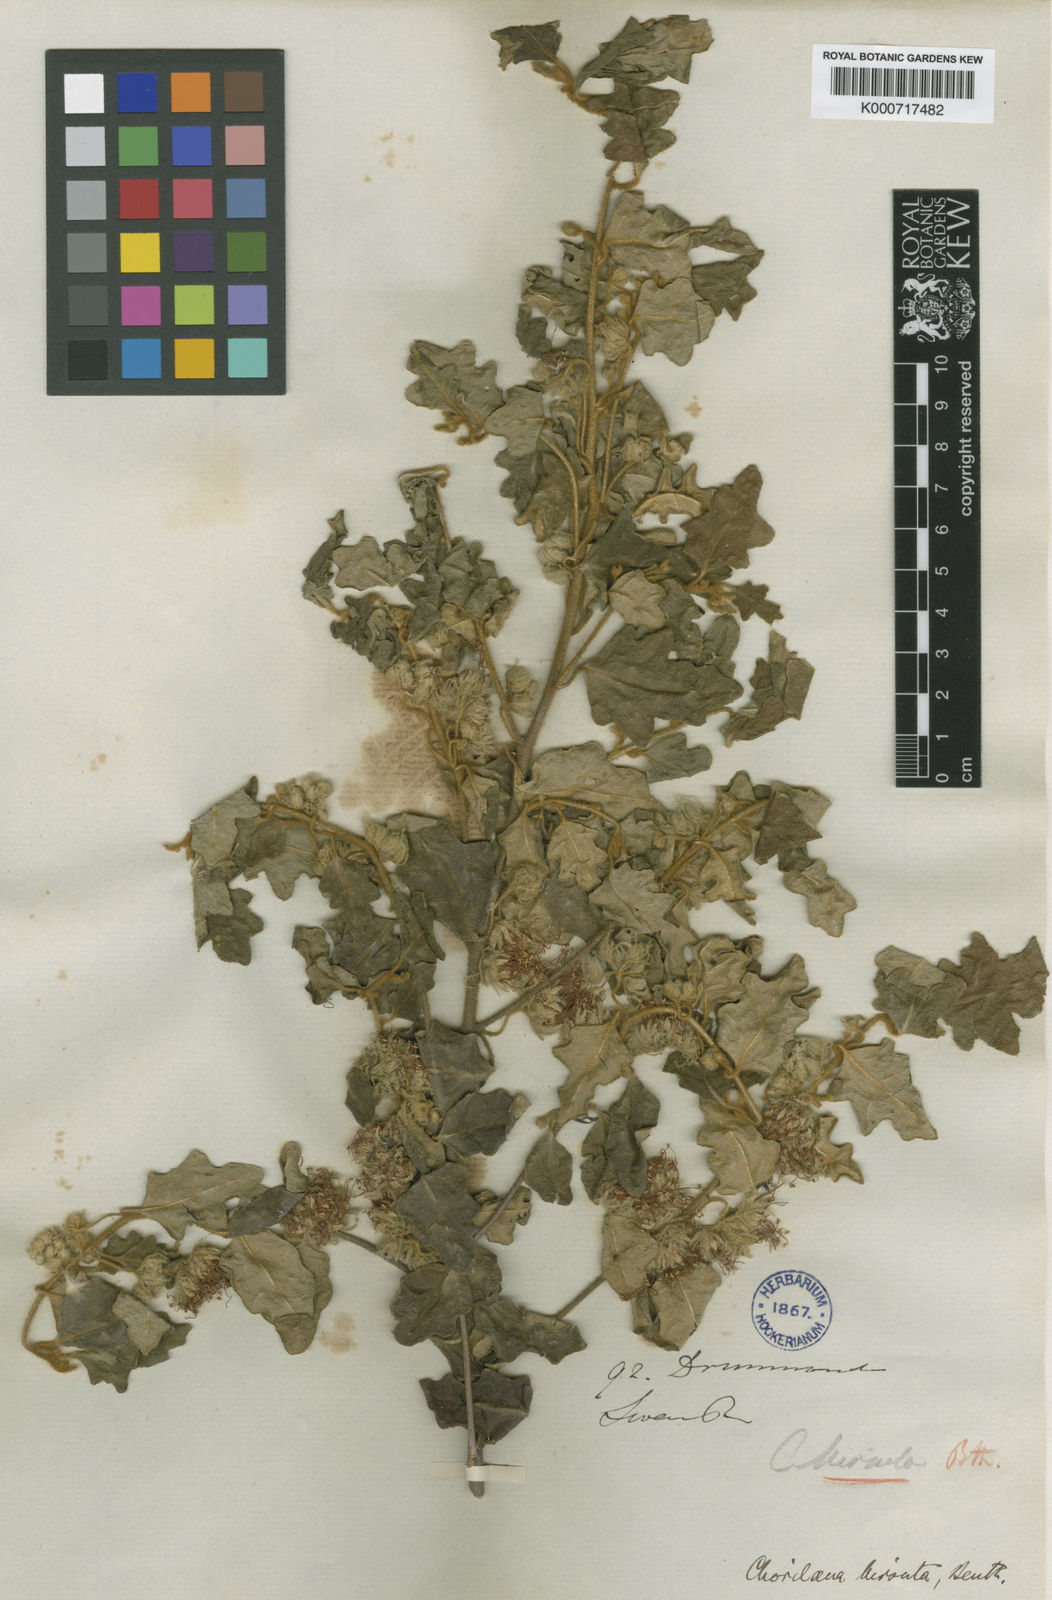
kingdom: Plantae
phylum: Tracheophyta
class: Magnoliopsida
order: Sapindales
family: Rutaceae
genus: Chorilaena
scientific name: Chorilaena quercifolia
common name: Wild hop
